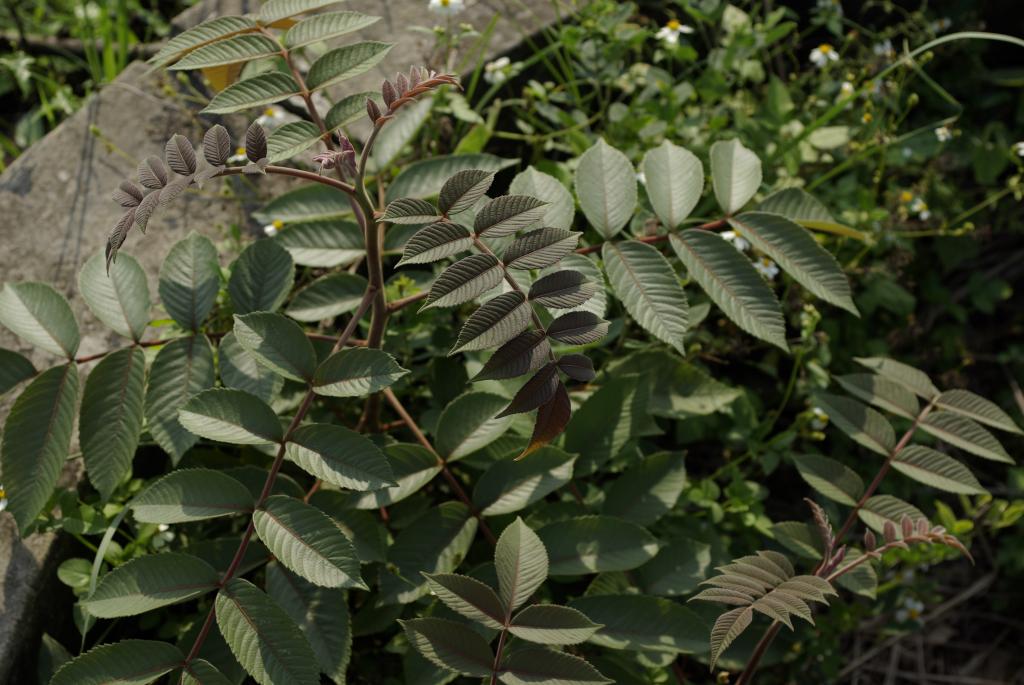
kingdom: Plantae
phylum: Tracheophyta
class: Magnoliopsida
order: Sapindales
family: Anacardiaceae
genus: Rhus
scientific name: Rhus chinensis
